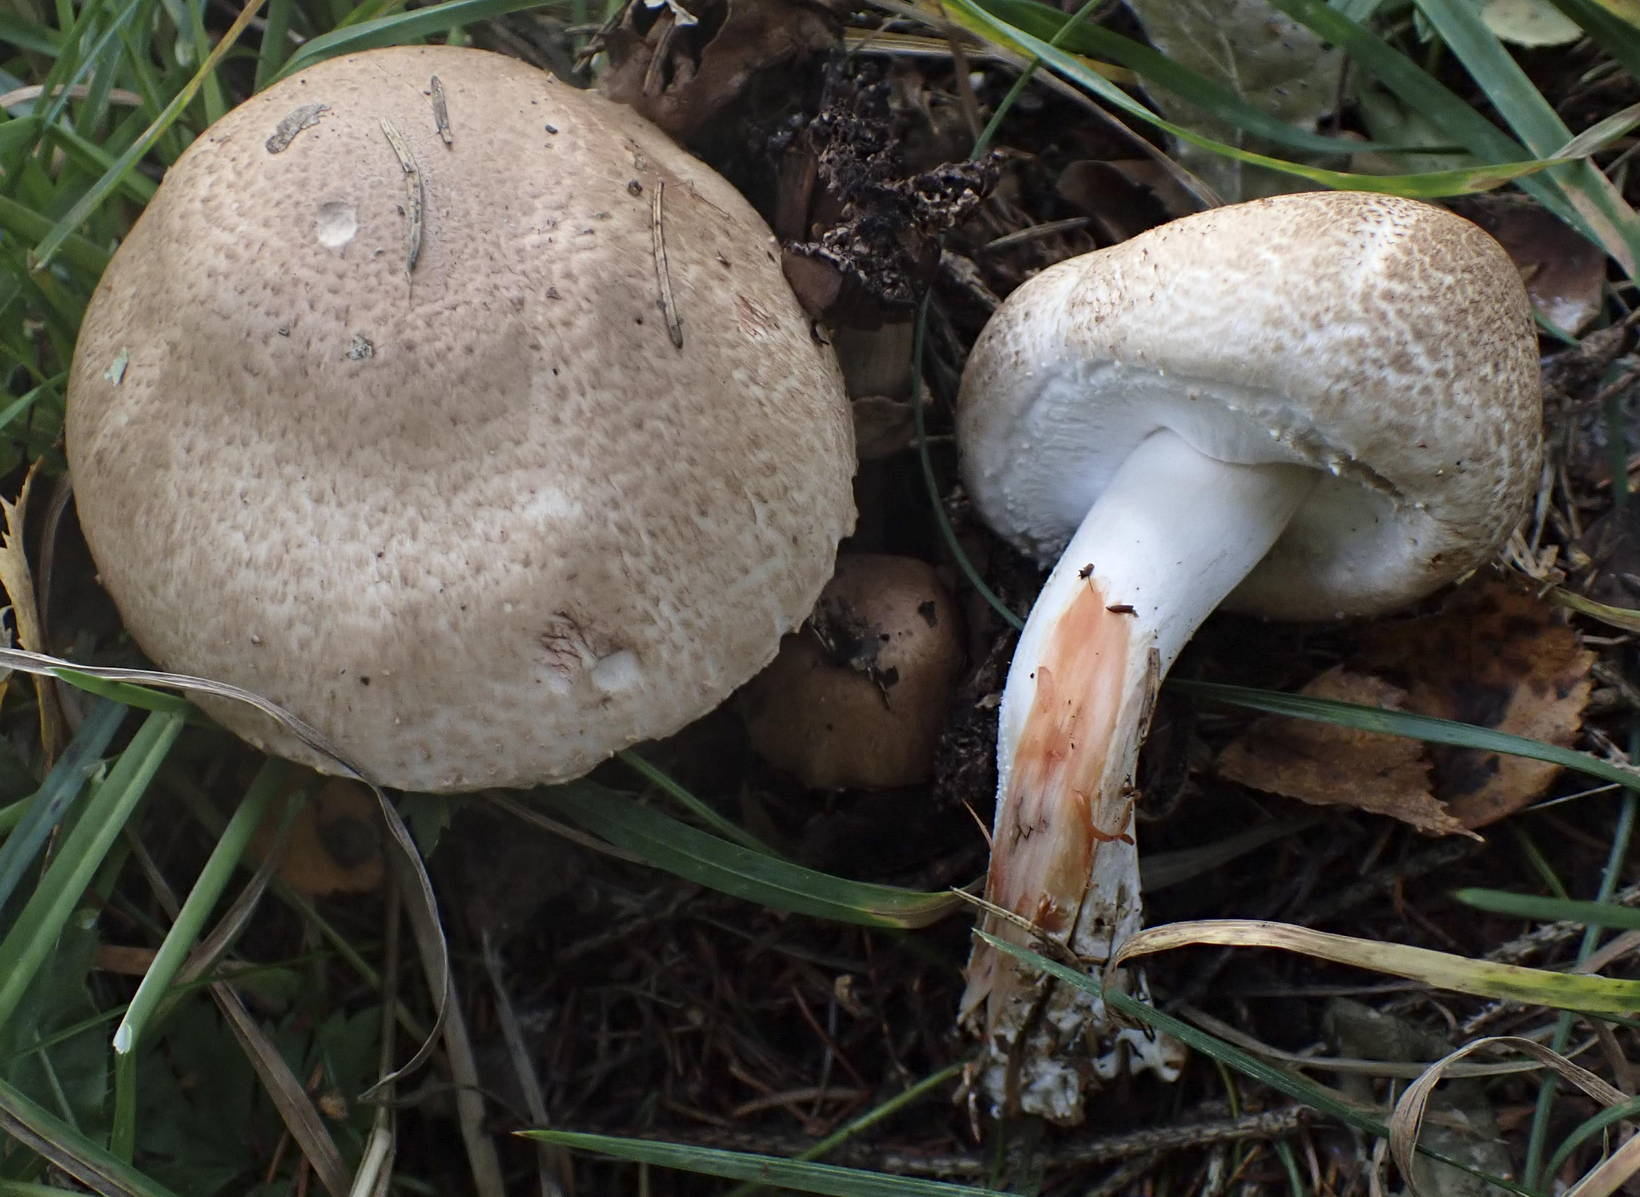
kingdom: Fungi
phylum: Basidiomycota
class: Agaricomycetes
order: Agaricales
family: Agaricaceae
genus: Agaricus
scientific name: Agaricus sylvaticus
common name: lille blod-champignon
